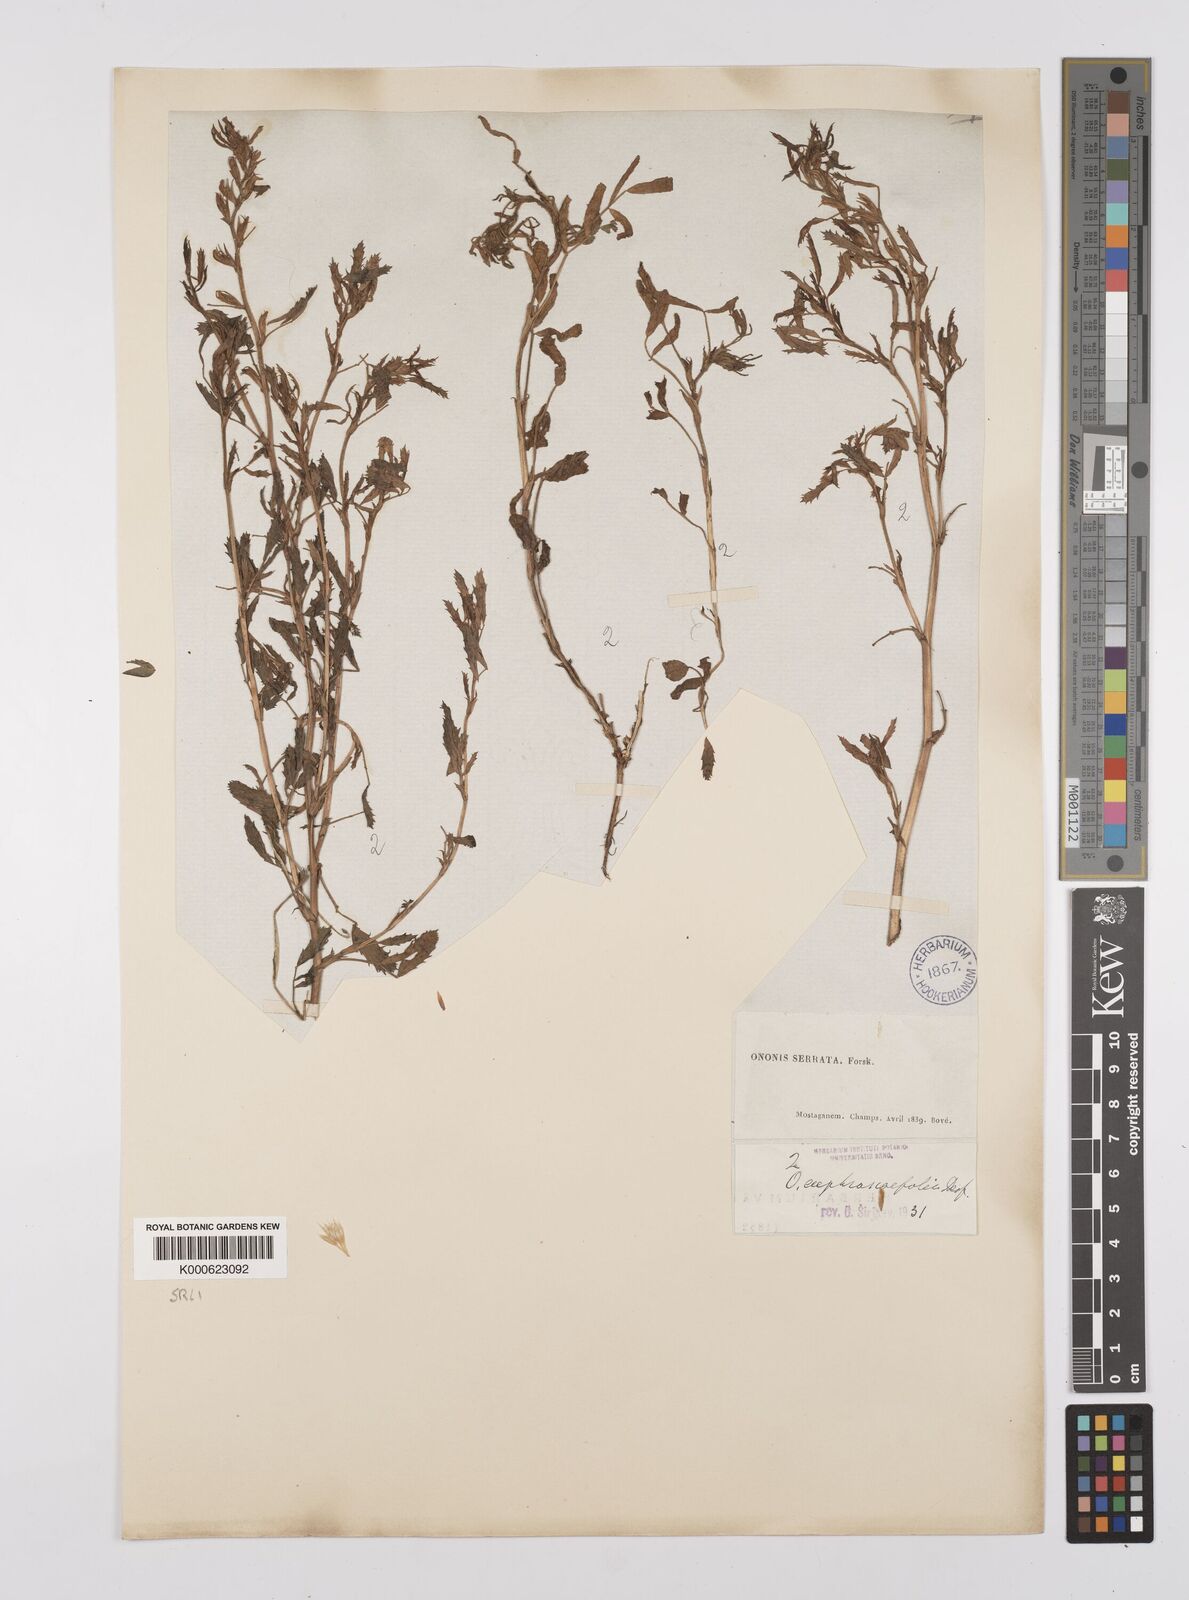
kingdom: Plantae
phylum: Tracheophyta
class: Magnoliopsida
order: Fabales
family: Fabaceae
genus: Ononis
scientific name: Ononis
